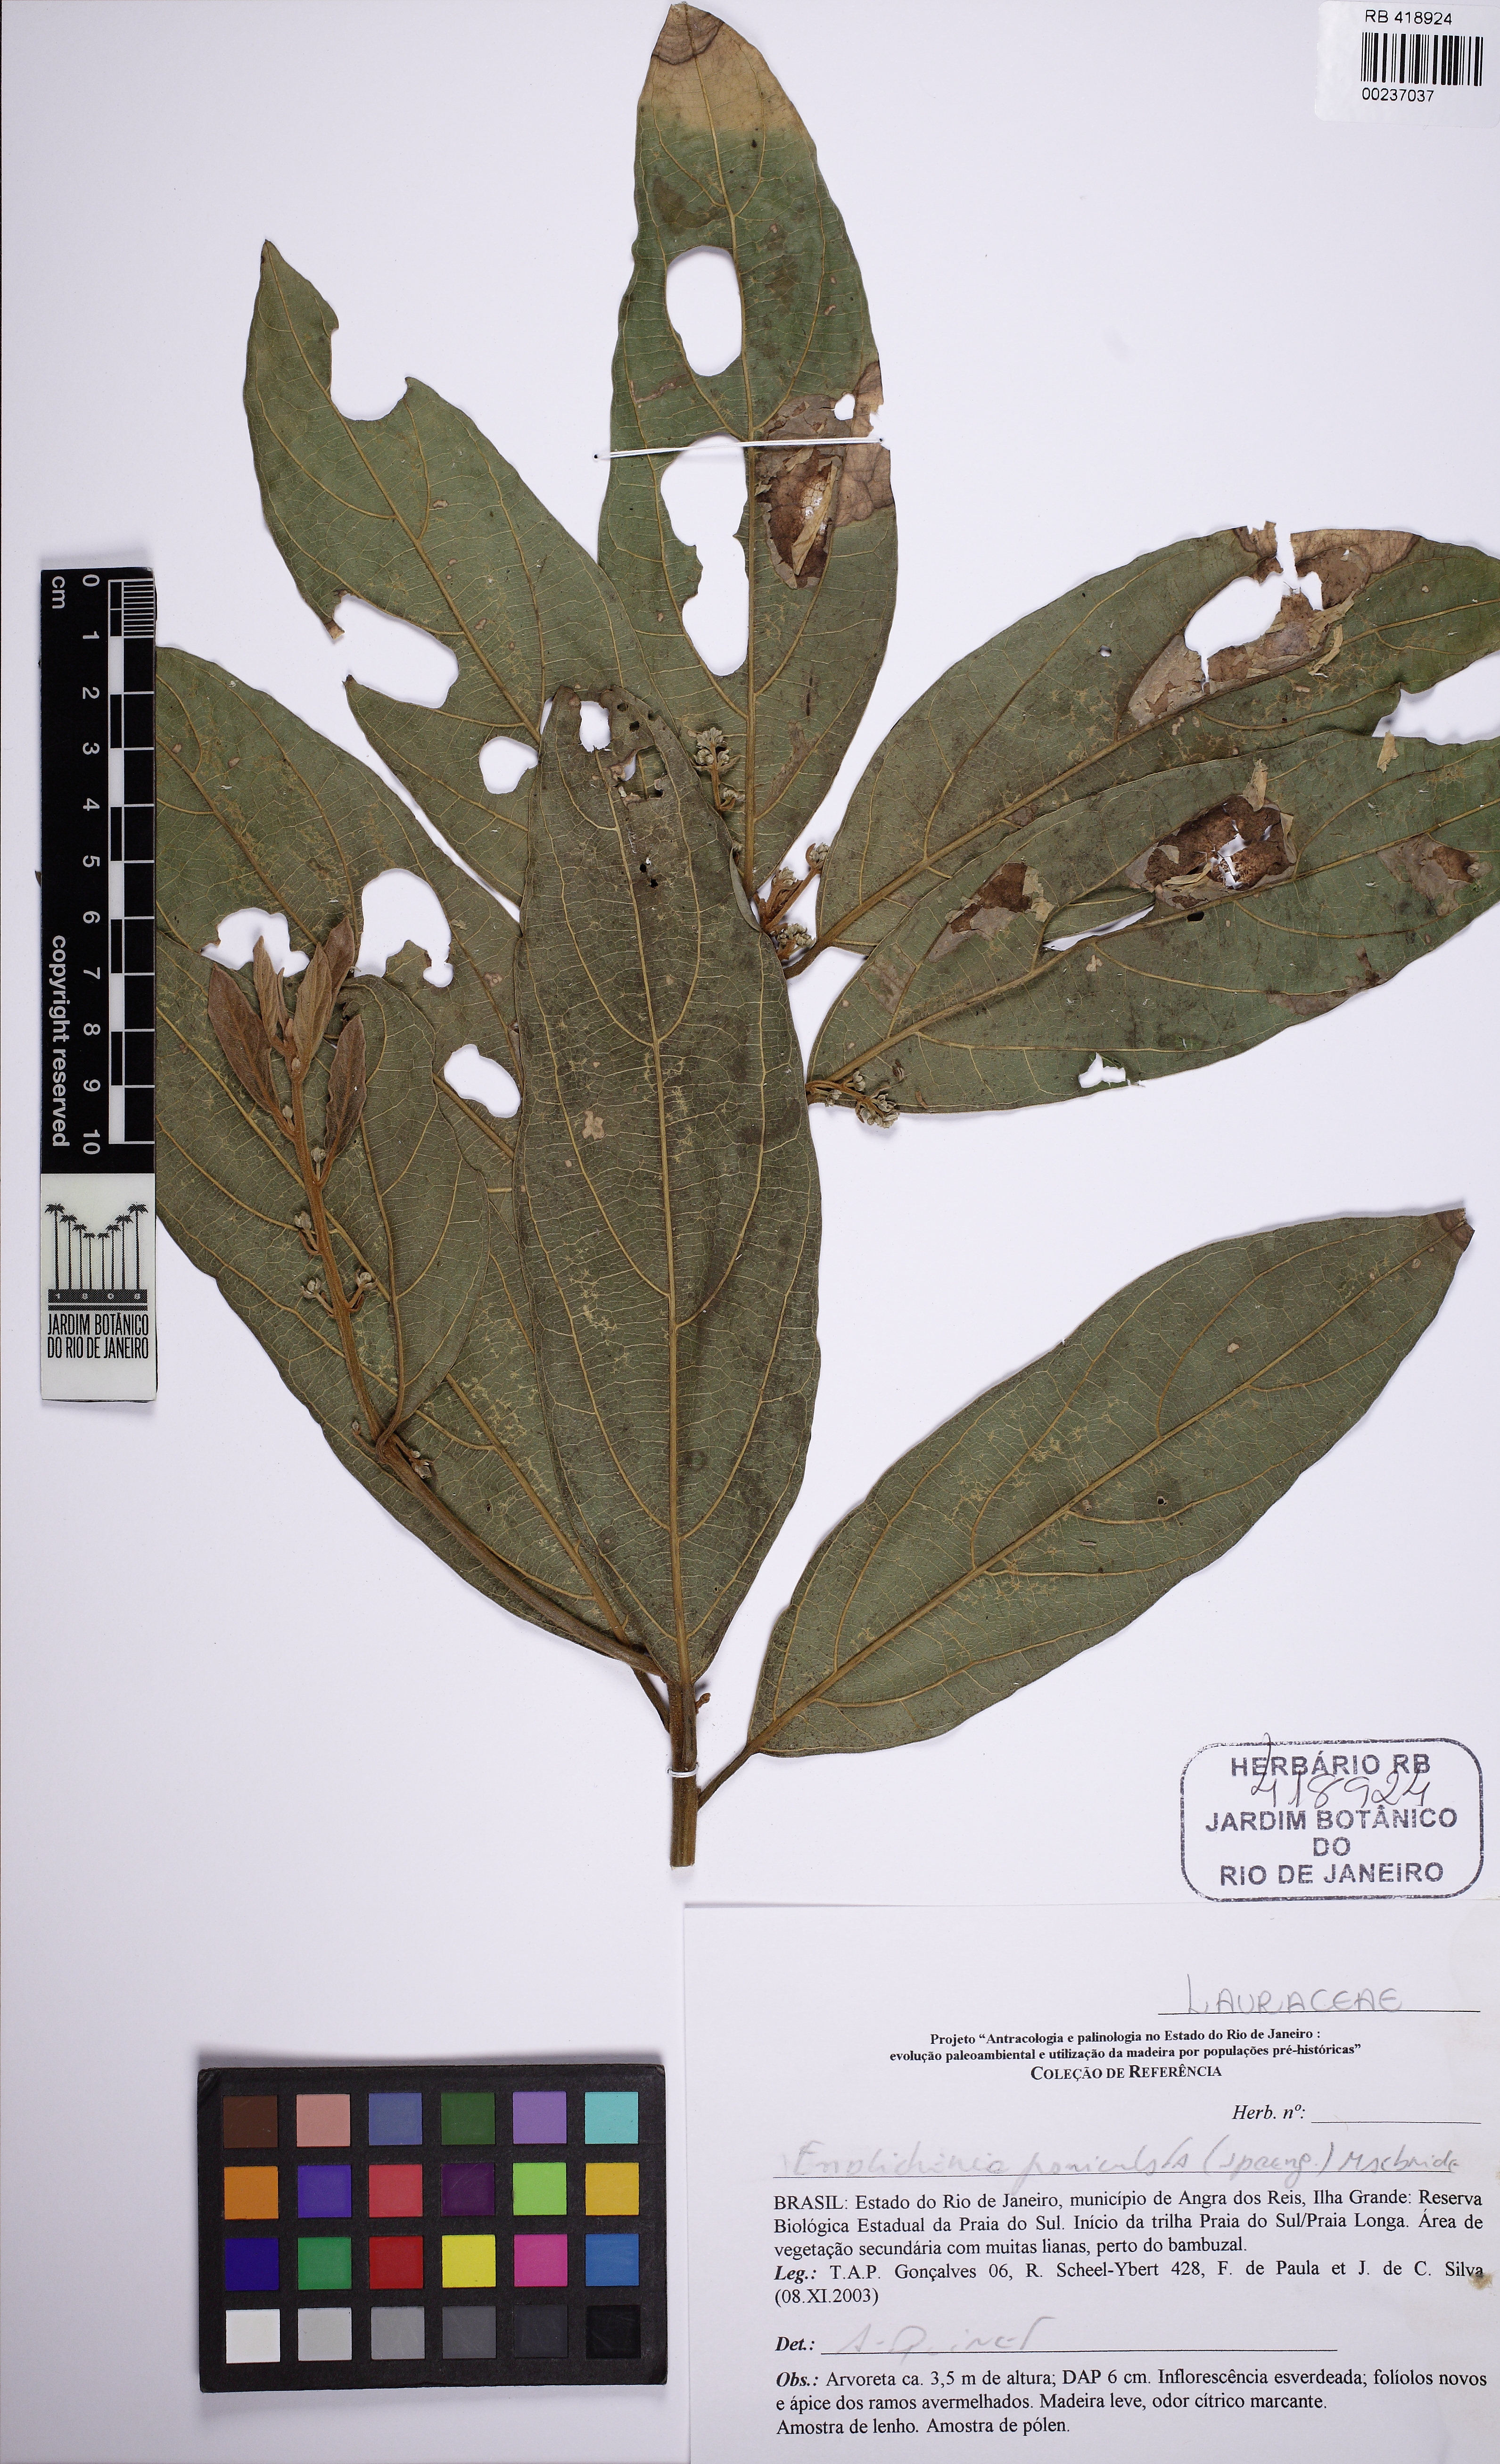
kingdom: Plantae
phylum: Tracheophyta
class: Magnoliopsida
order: Laurales
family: Lauraceae
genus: Endlicheria
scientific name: Endlicheria paniculata
